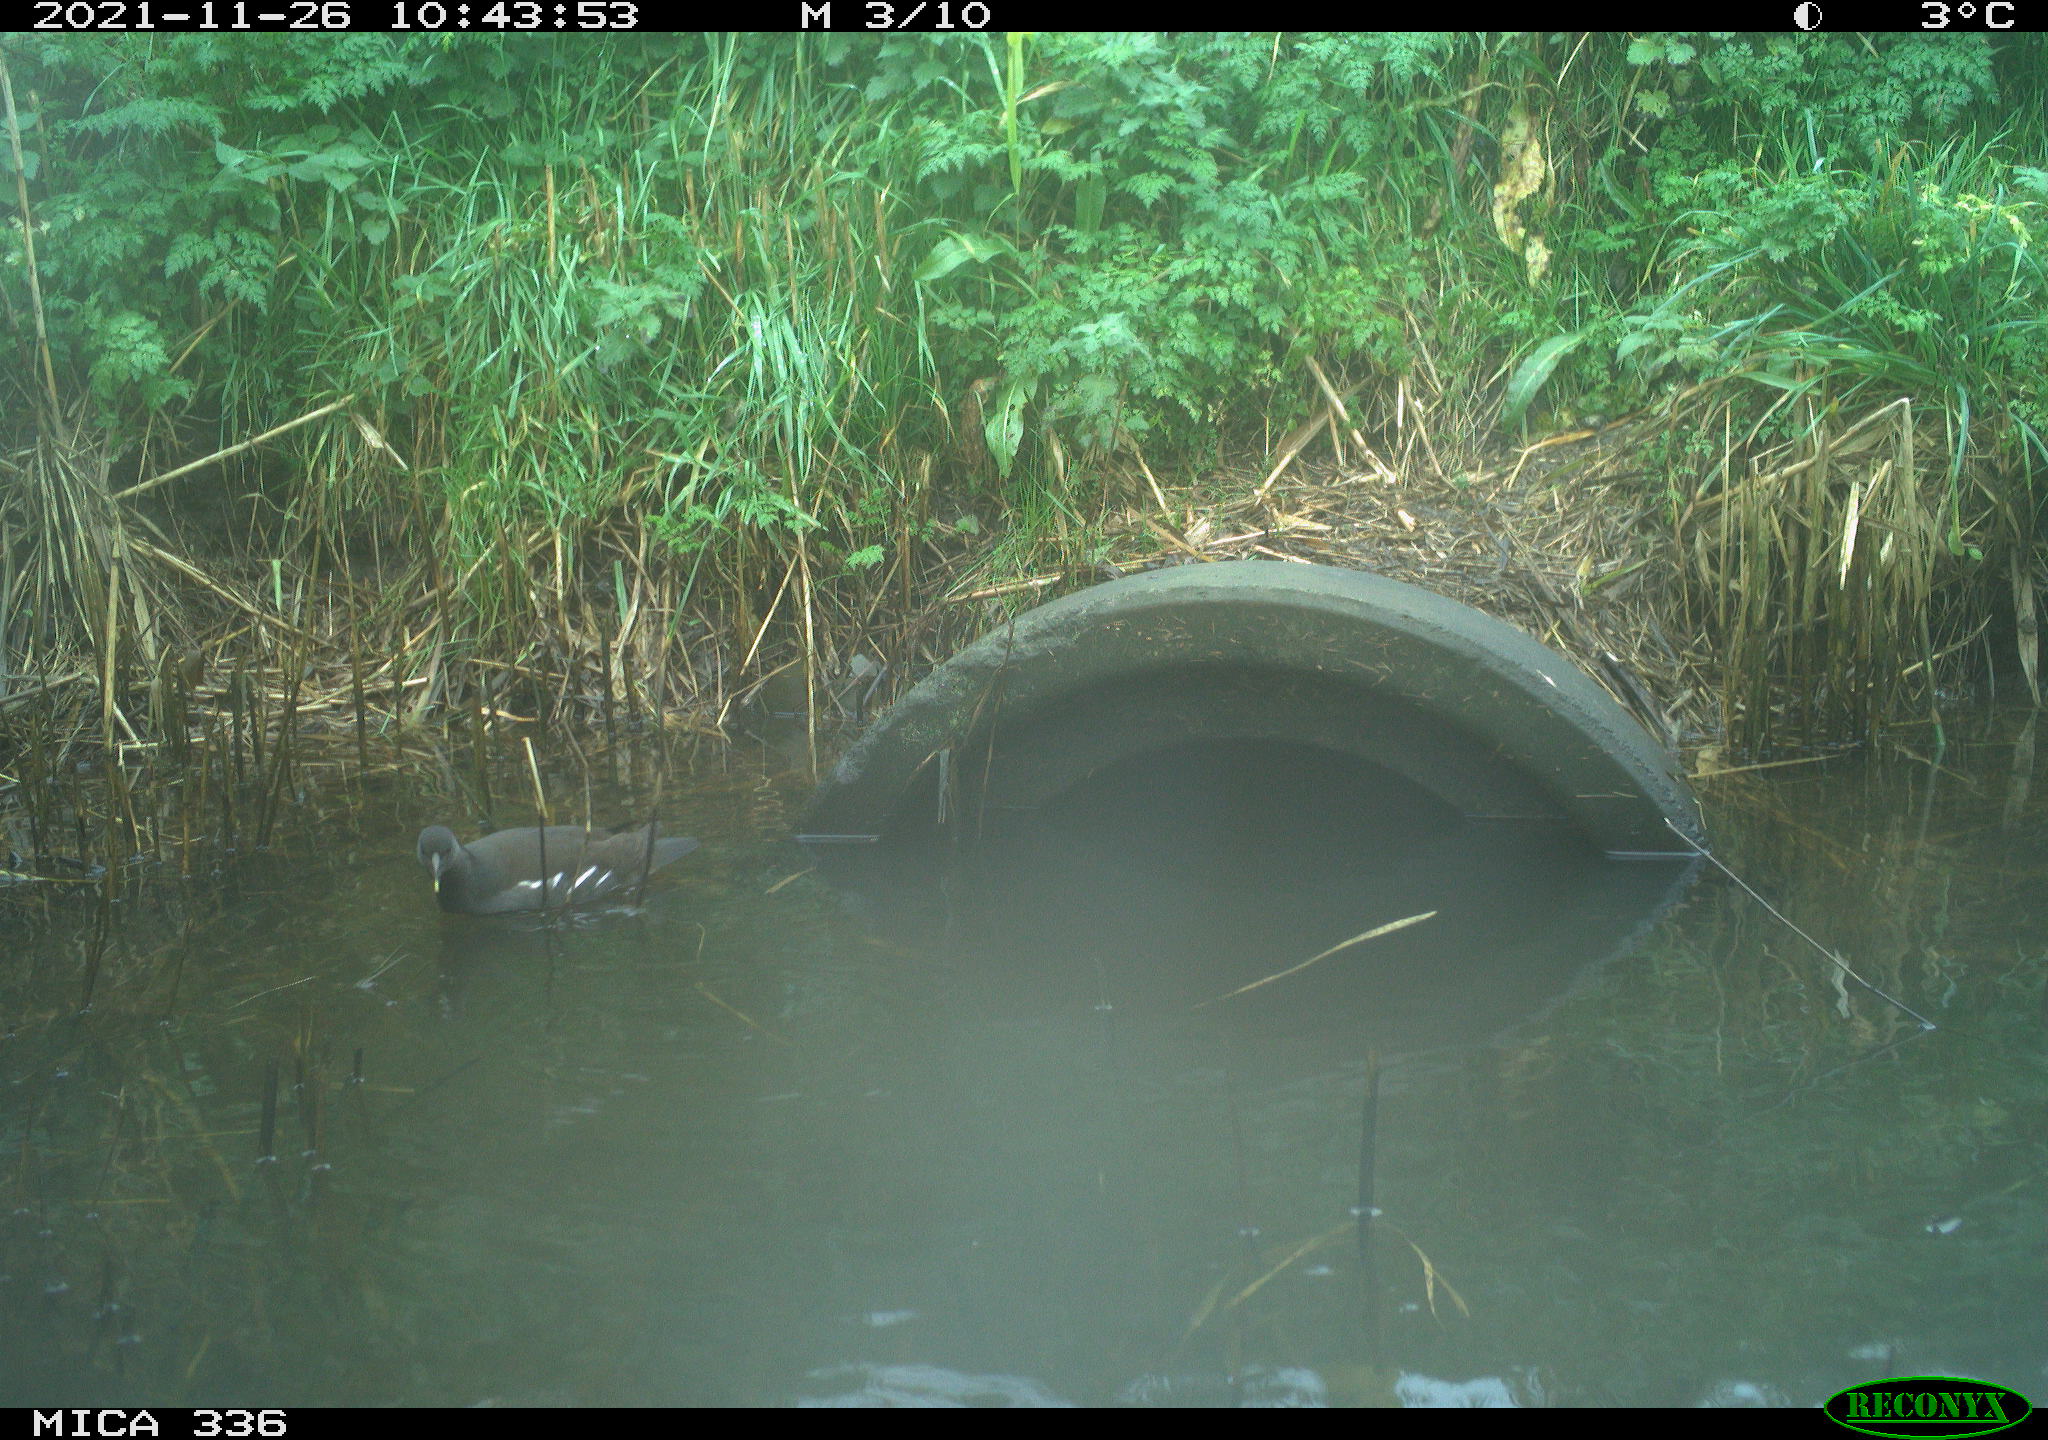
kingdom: Animalia
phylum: Chordata
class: Aves
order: Gruiformes
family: Rallidae
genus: Gallinula
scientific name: Gallinula chloropus
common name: Common moorhen
